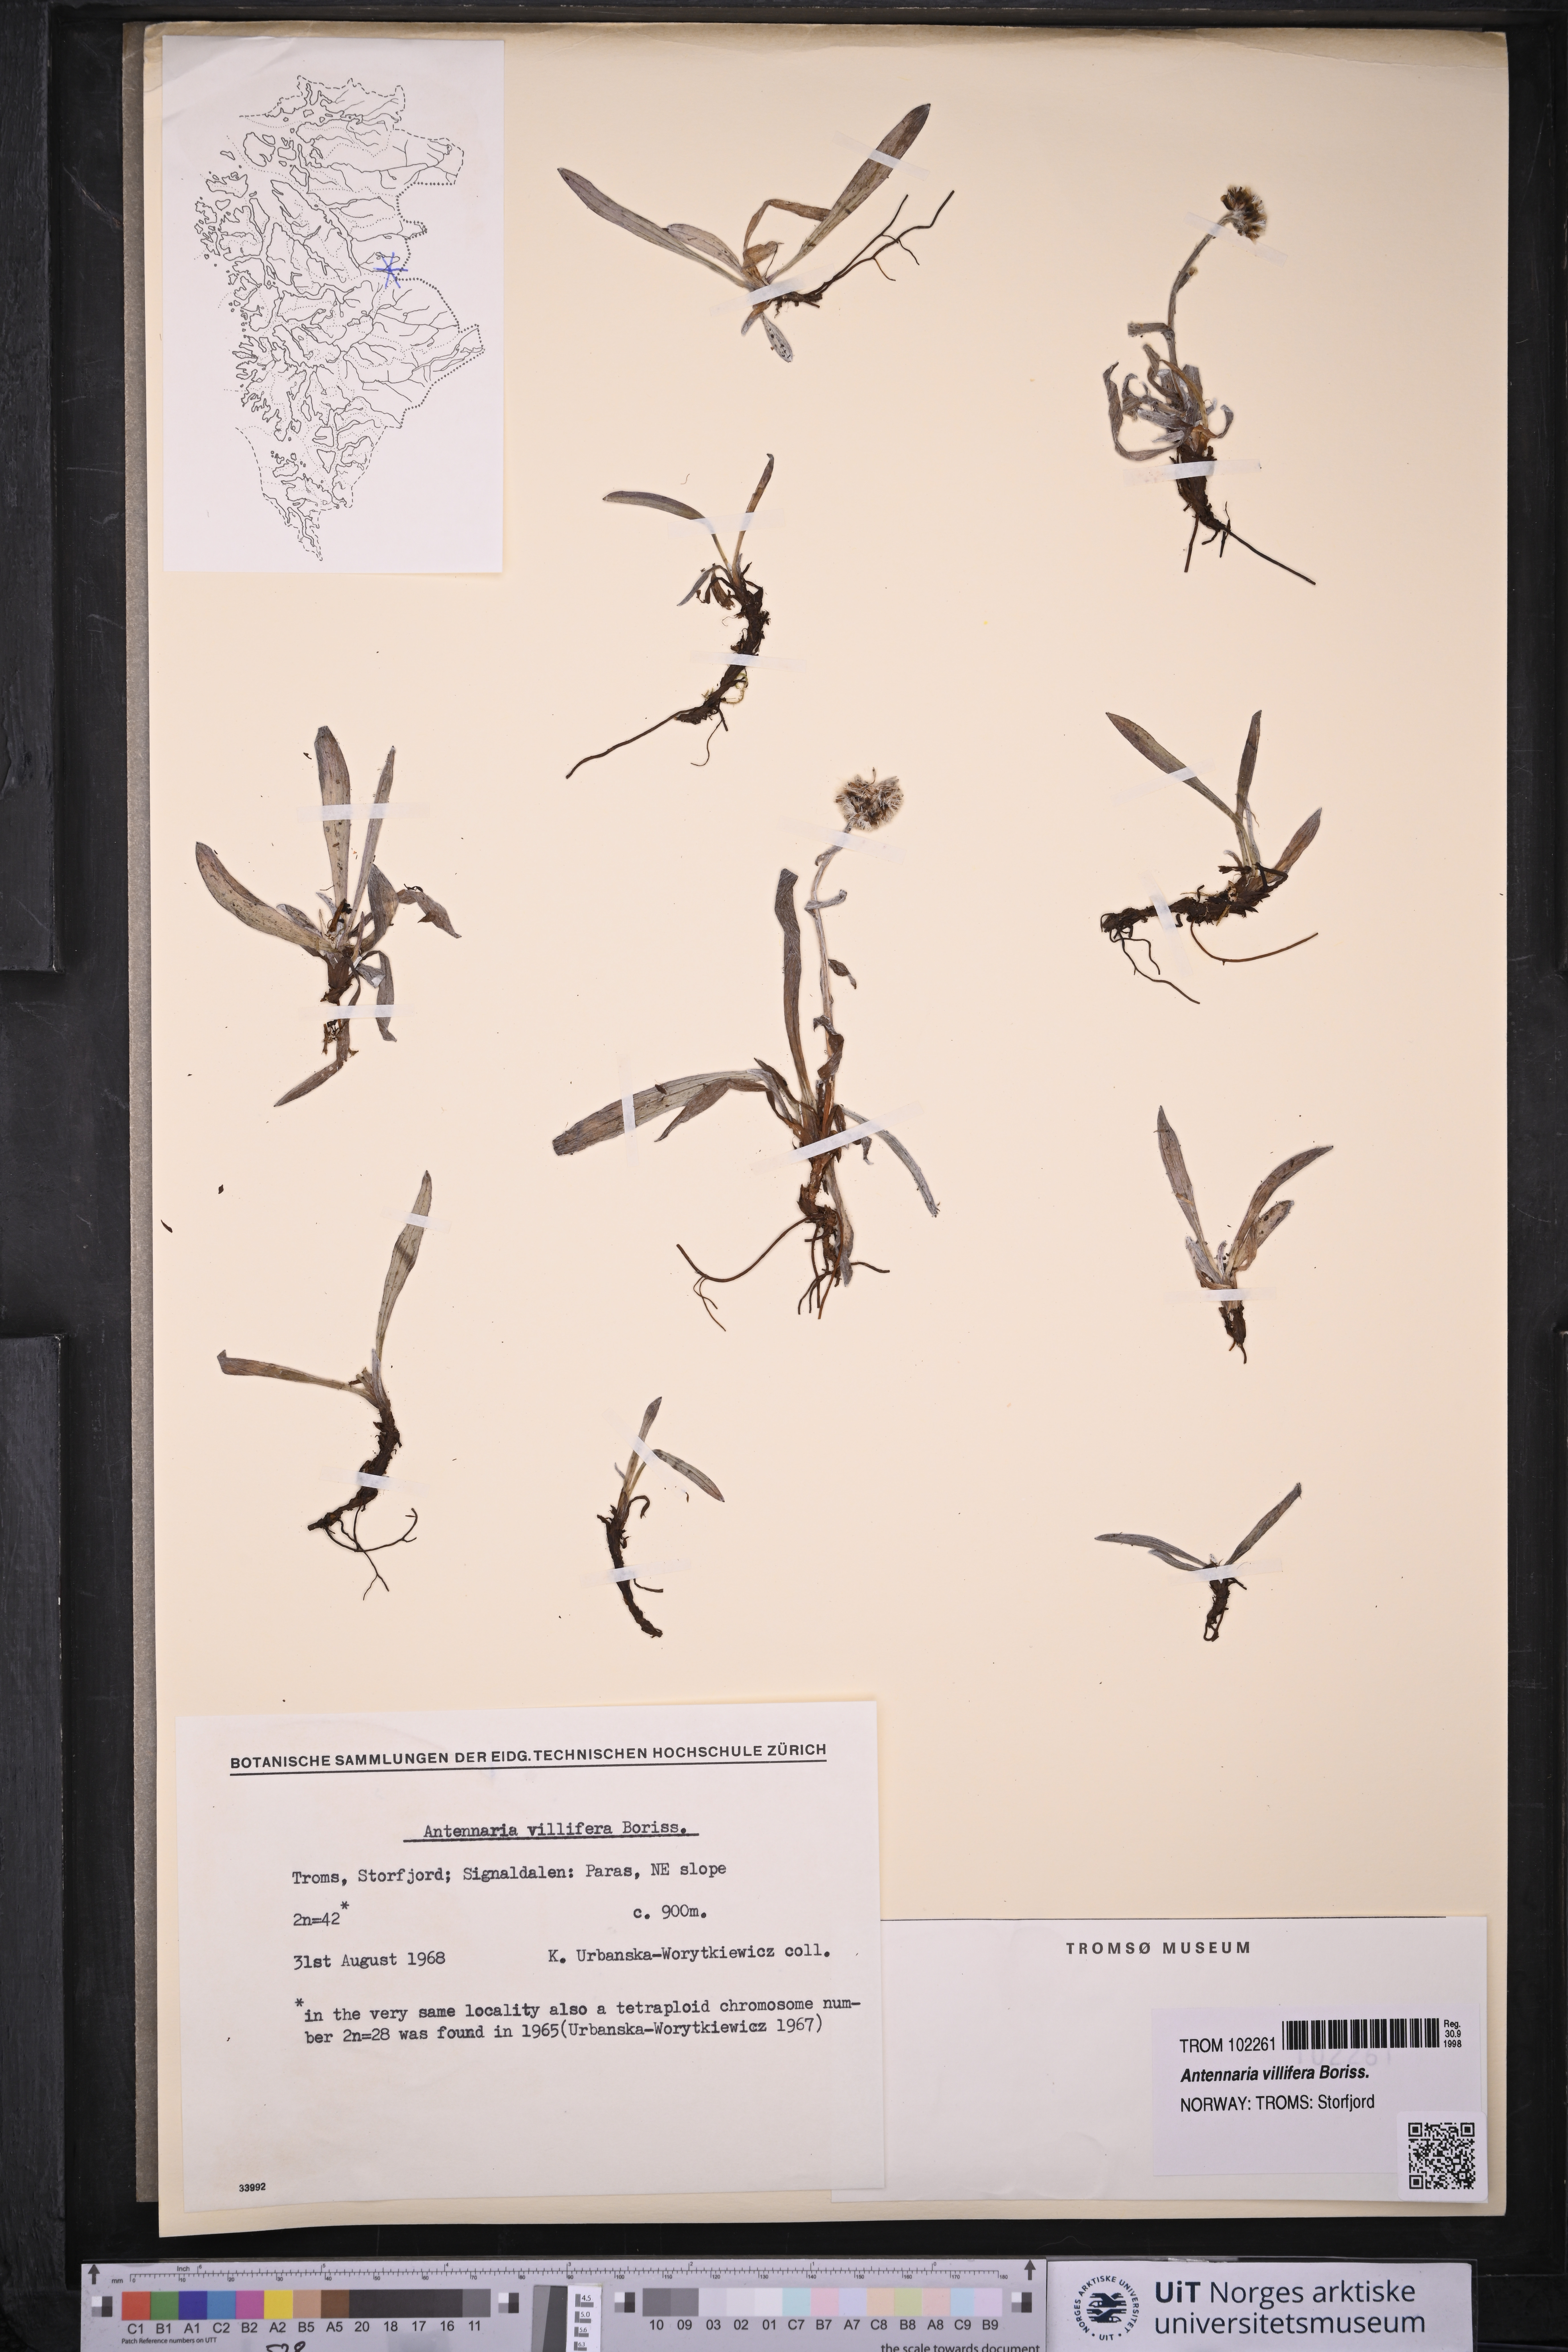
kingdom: Plantae
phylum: Tracheophyta
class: Magnoliopsida
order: Asterales
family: Asteraceae
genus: Antennaria
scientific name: Antennaria lanata
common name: Woolly pussytoes
